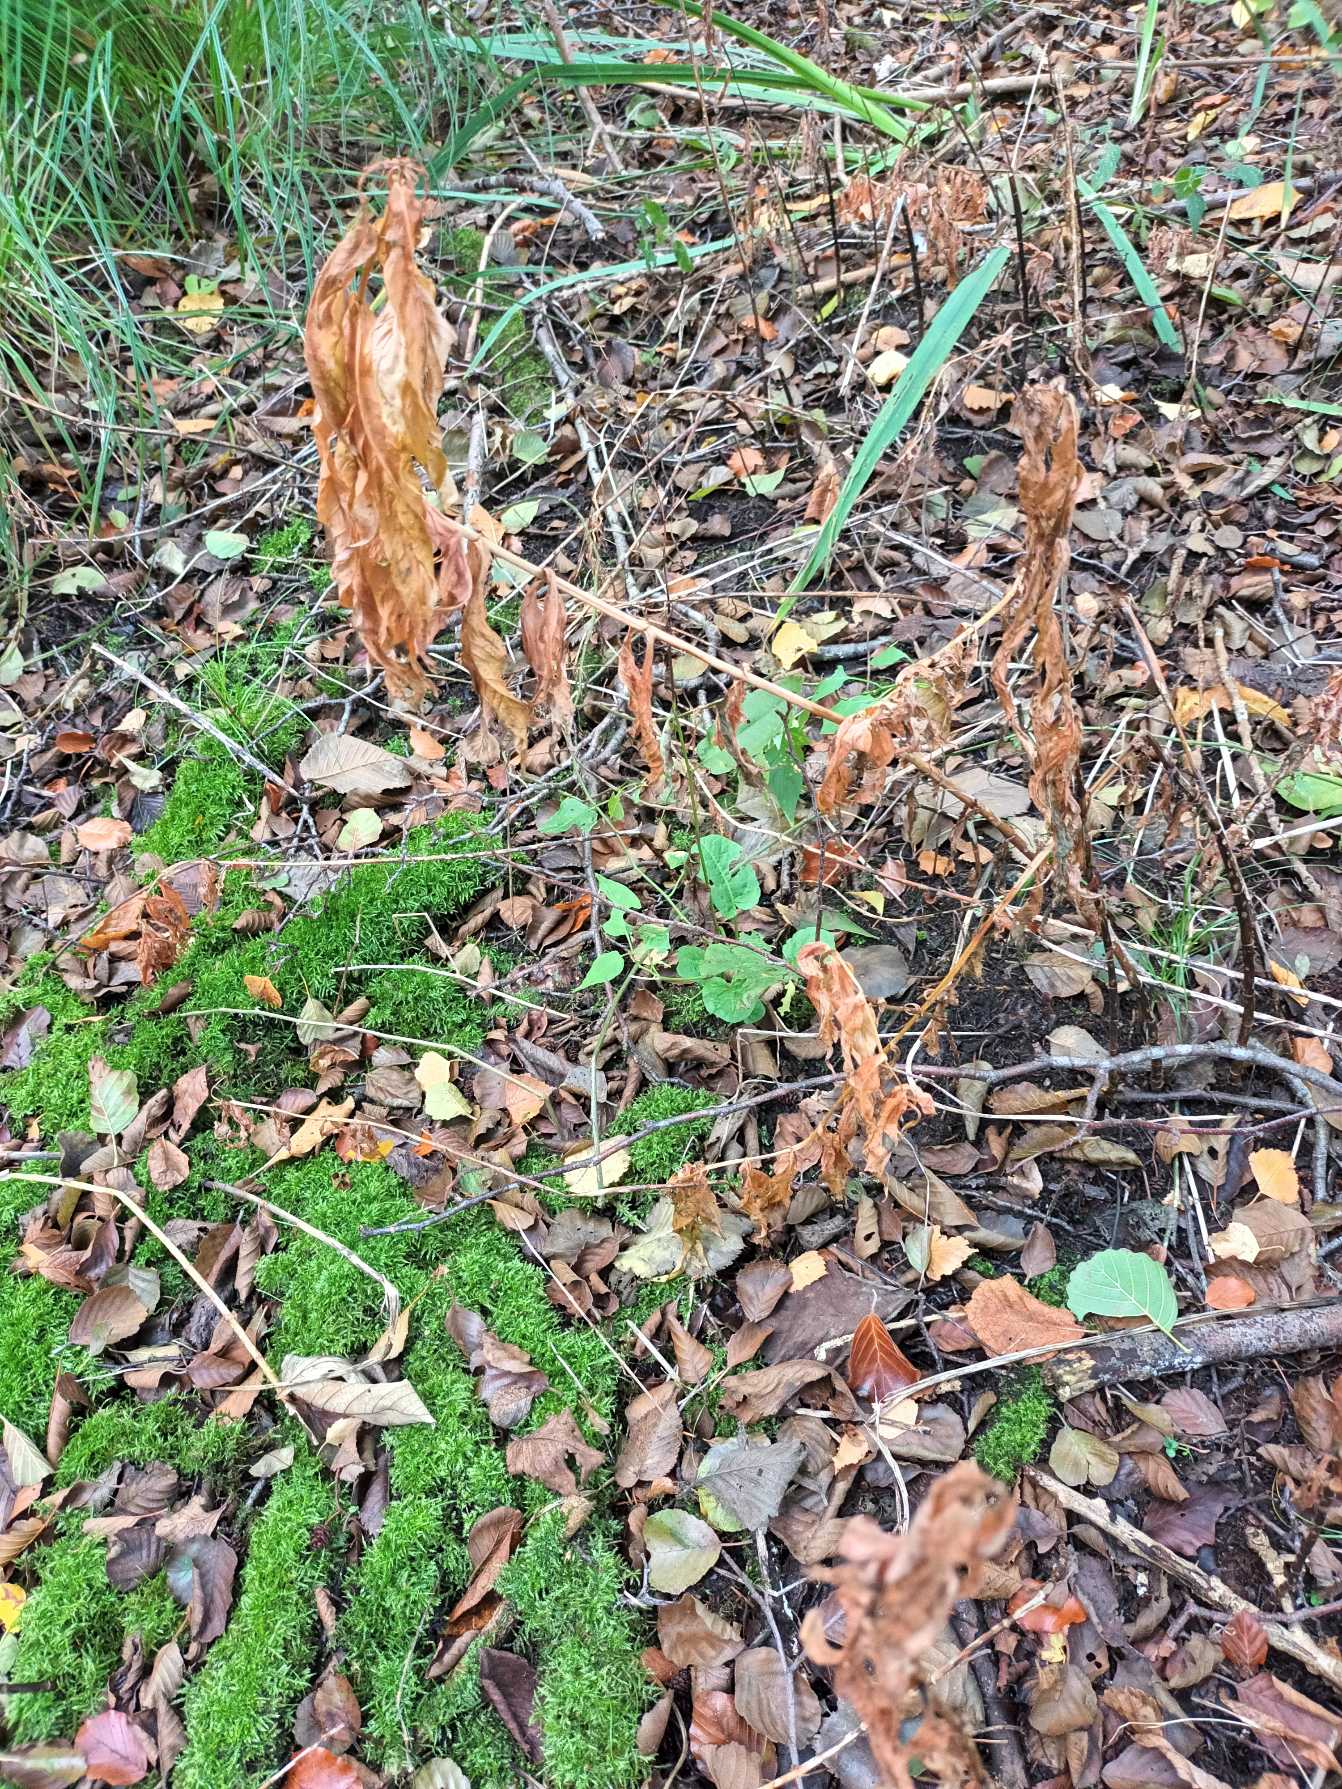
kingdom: Plantae
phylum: Tracheophyta
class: Magnoliopsida
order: Ericales
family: Primulaceae
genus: Lysimachia
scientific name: Lysimachia thyrsiflora
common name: Dusk-fredløs
